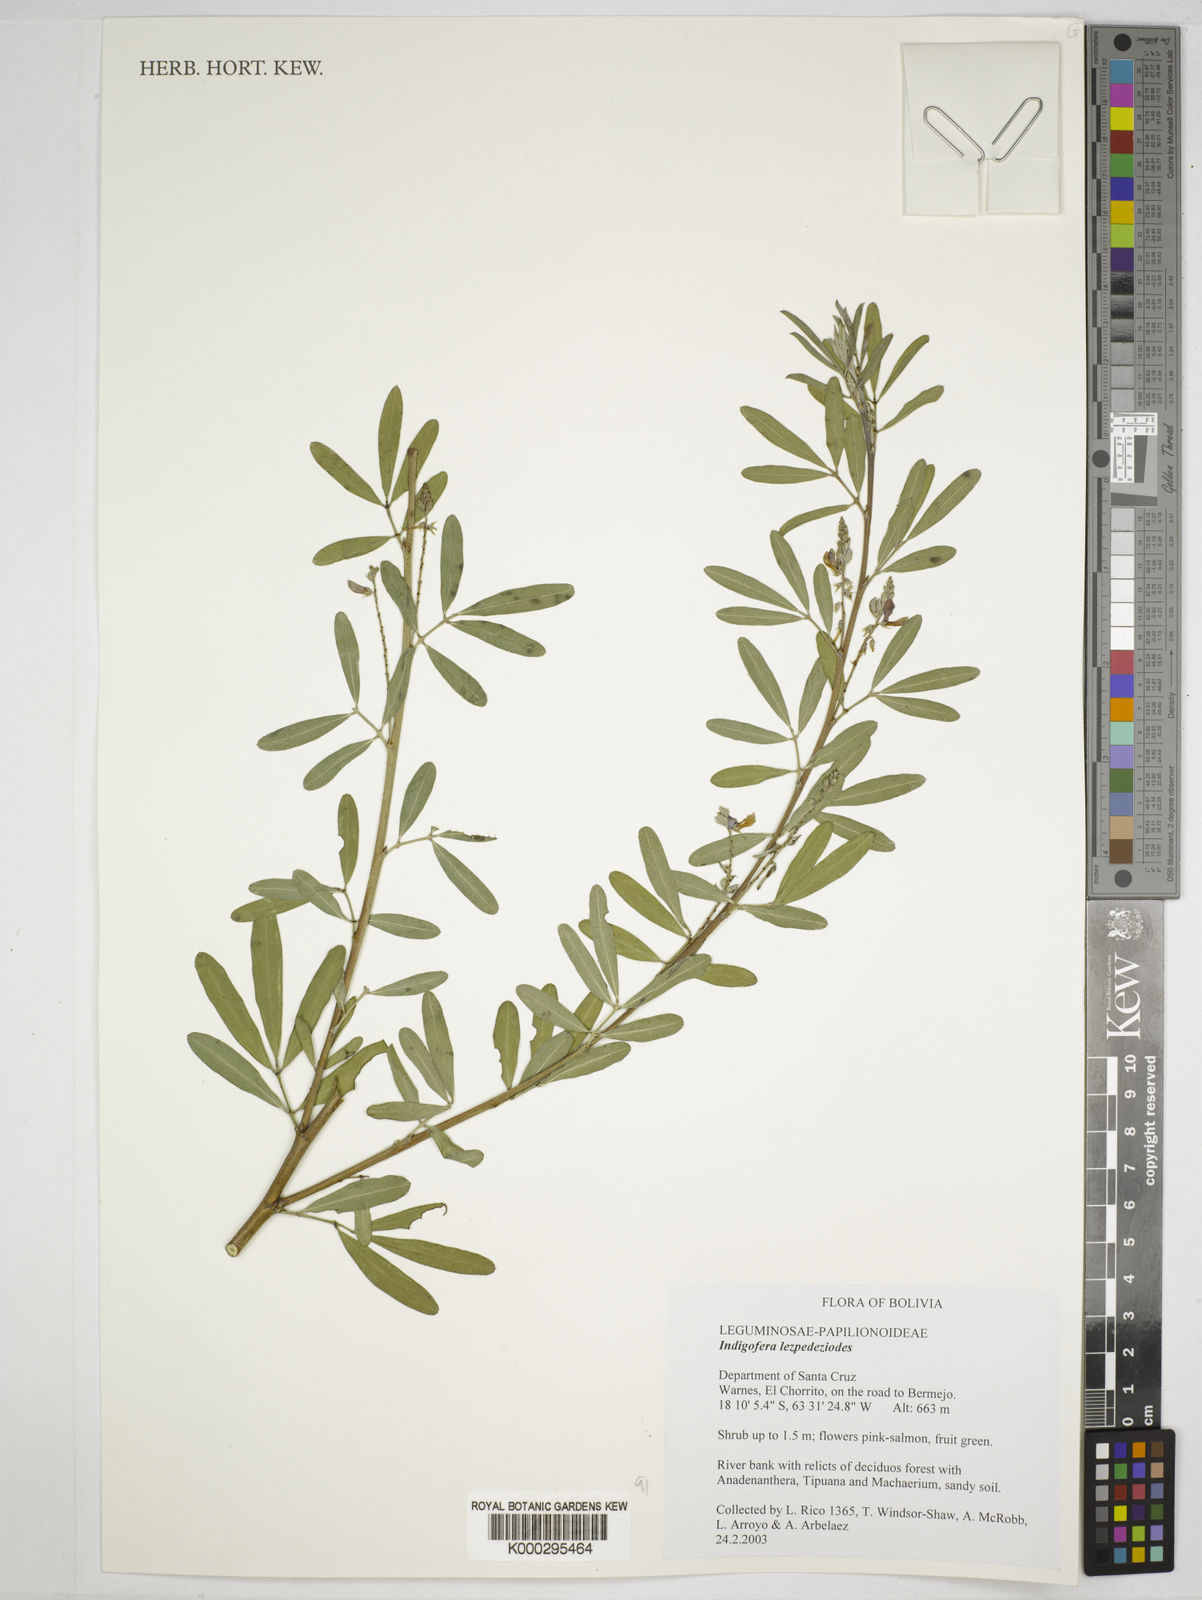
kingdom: Plantae
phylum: Tracheophyta
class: Magnoliopsida
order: Fabales
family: Fabaceae
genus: Indigofera
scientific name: Indigofera
